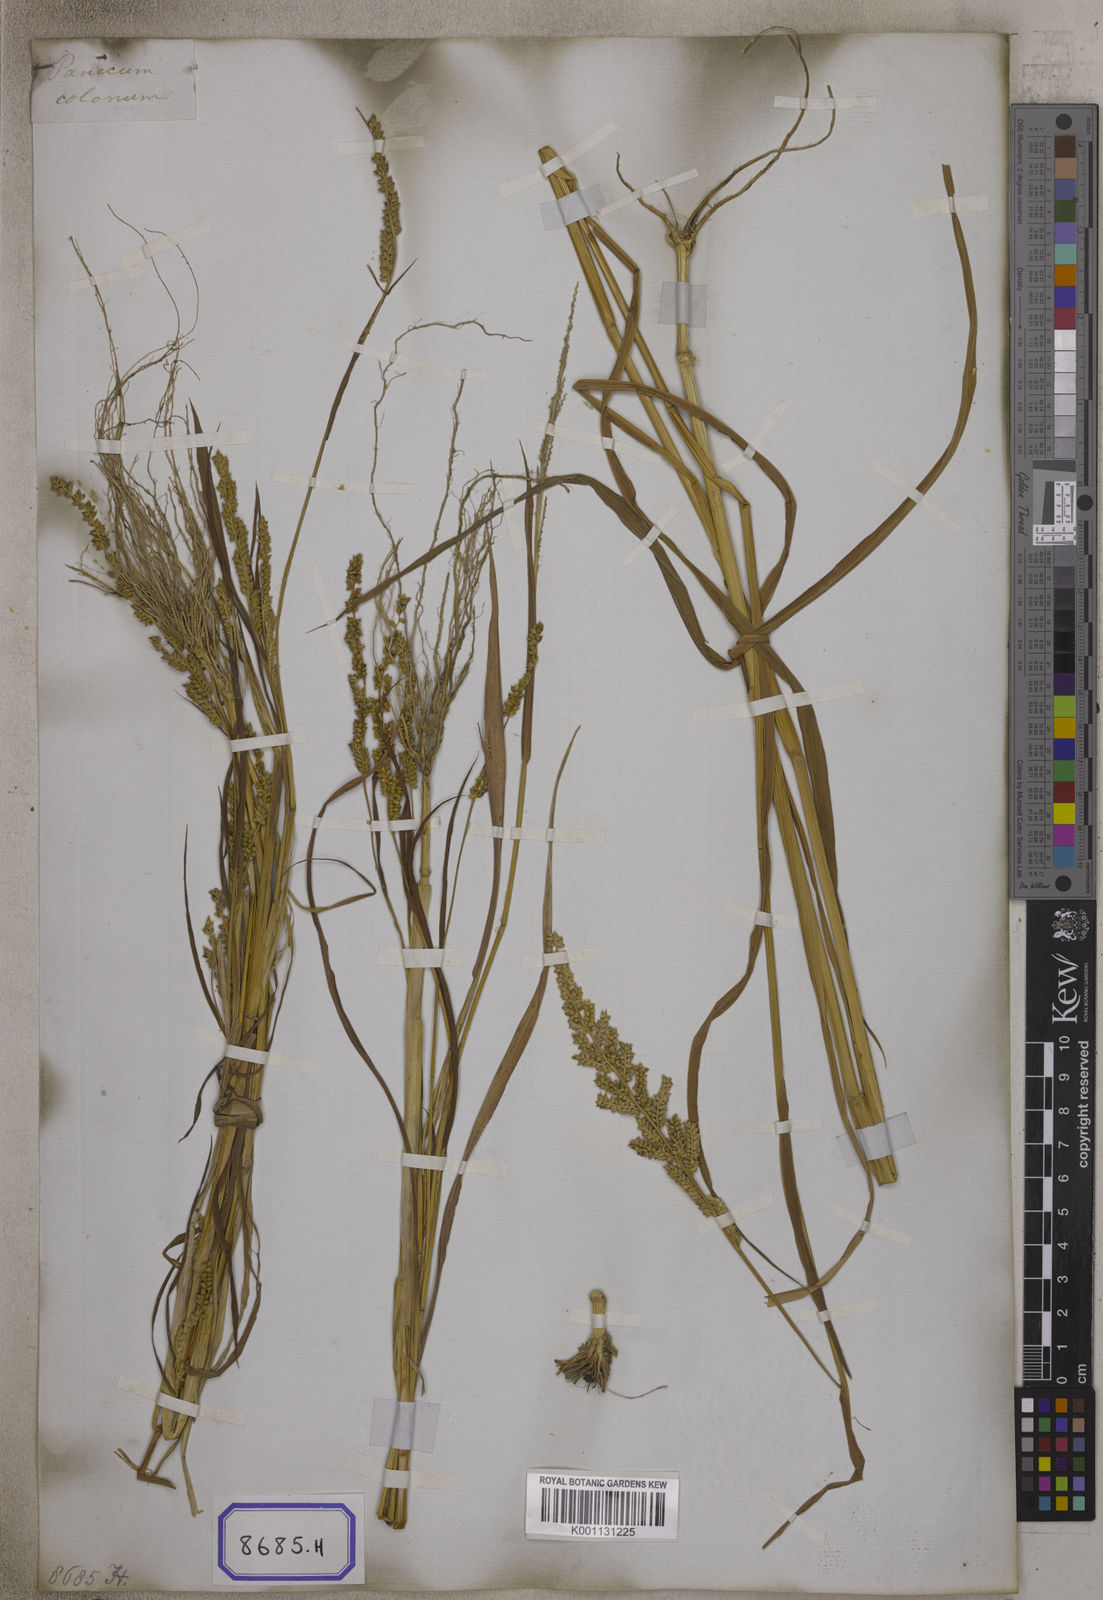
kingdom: Plantae
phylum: Tracheophyta
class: Liliopsida
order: Poales
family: Poaceae
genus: Echinochloa
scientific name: Echinochloa colonum
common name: Jungle rice
